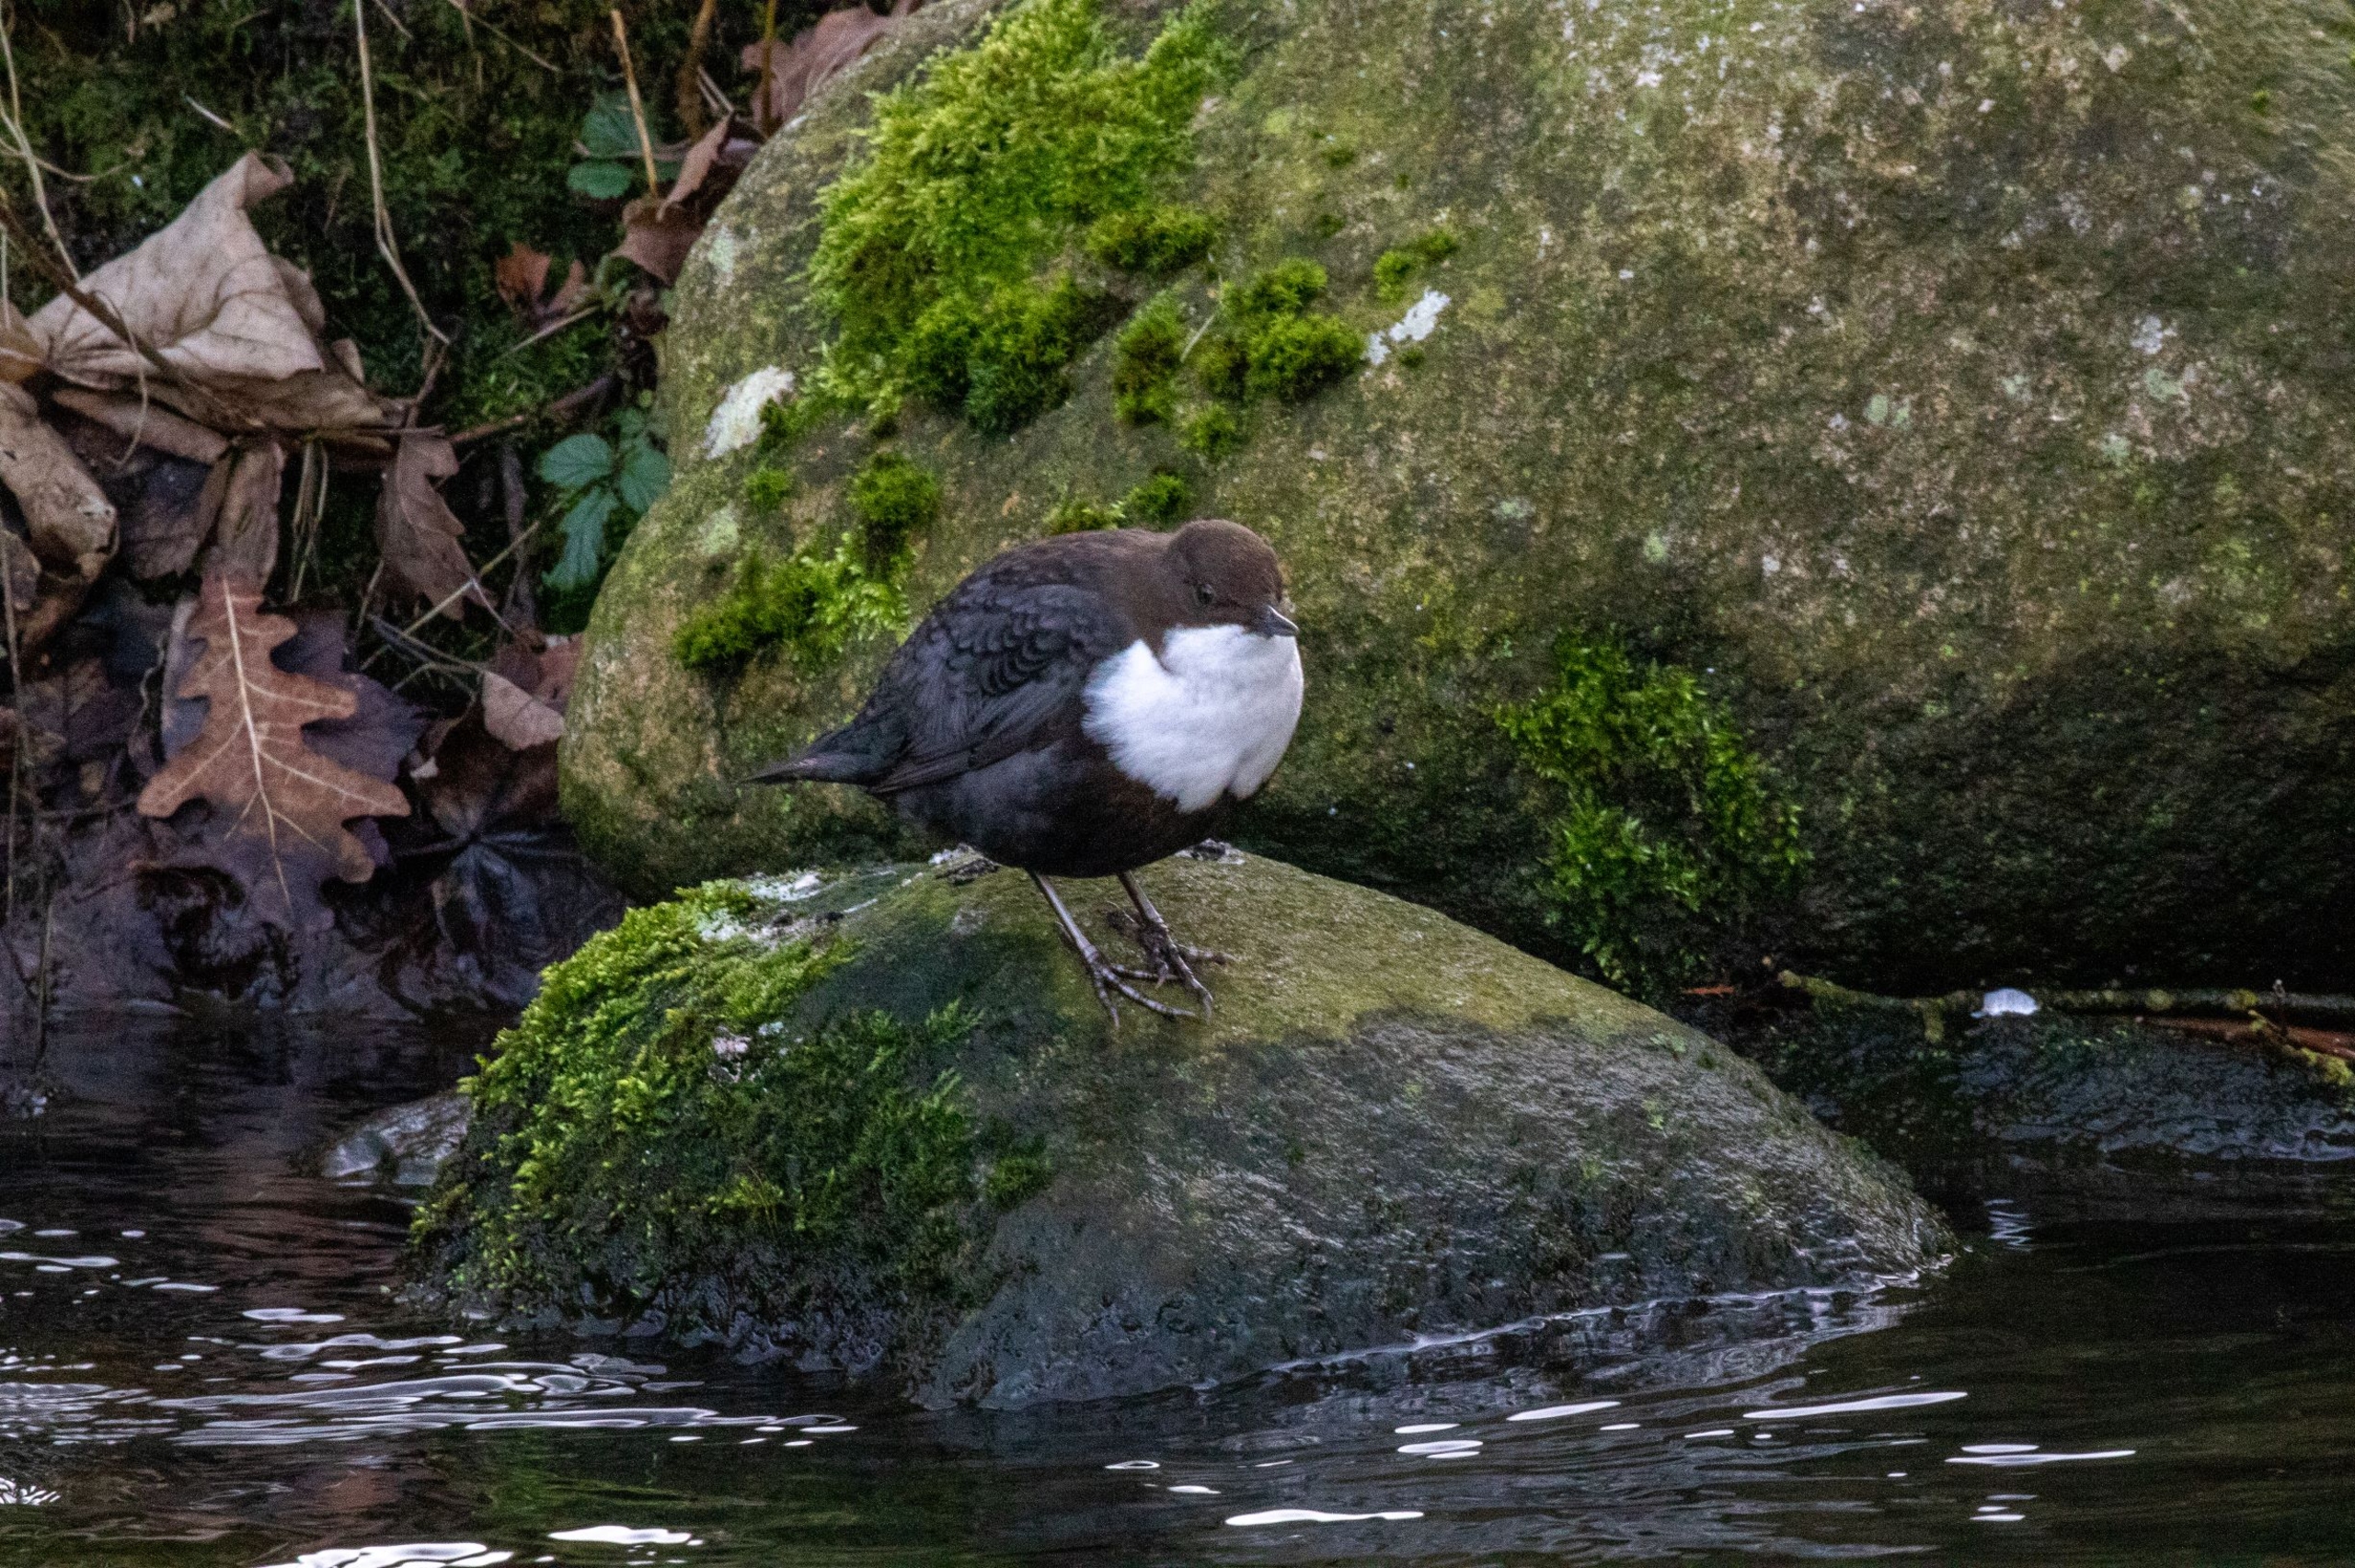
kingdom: Animalia
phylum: Chordata
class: Aves
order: Passeriformes
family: Cinclidae
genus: Cinclus
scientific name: Cinclus cinclus
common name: Vandstær
